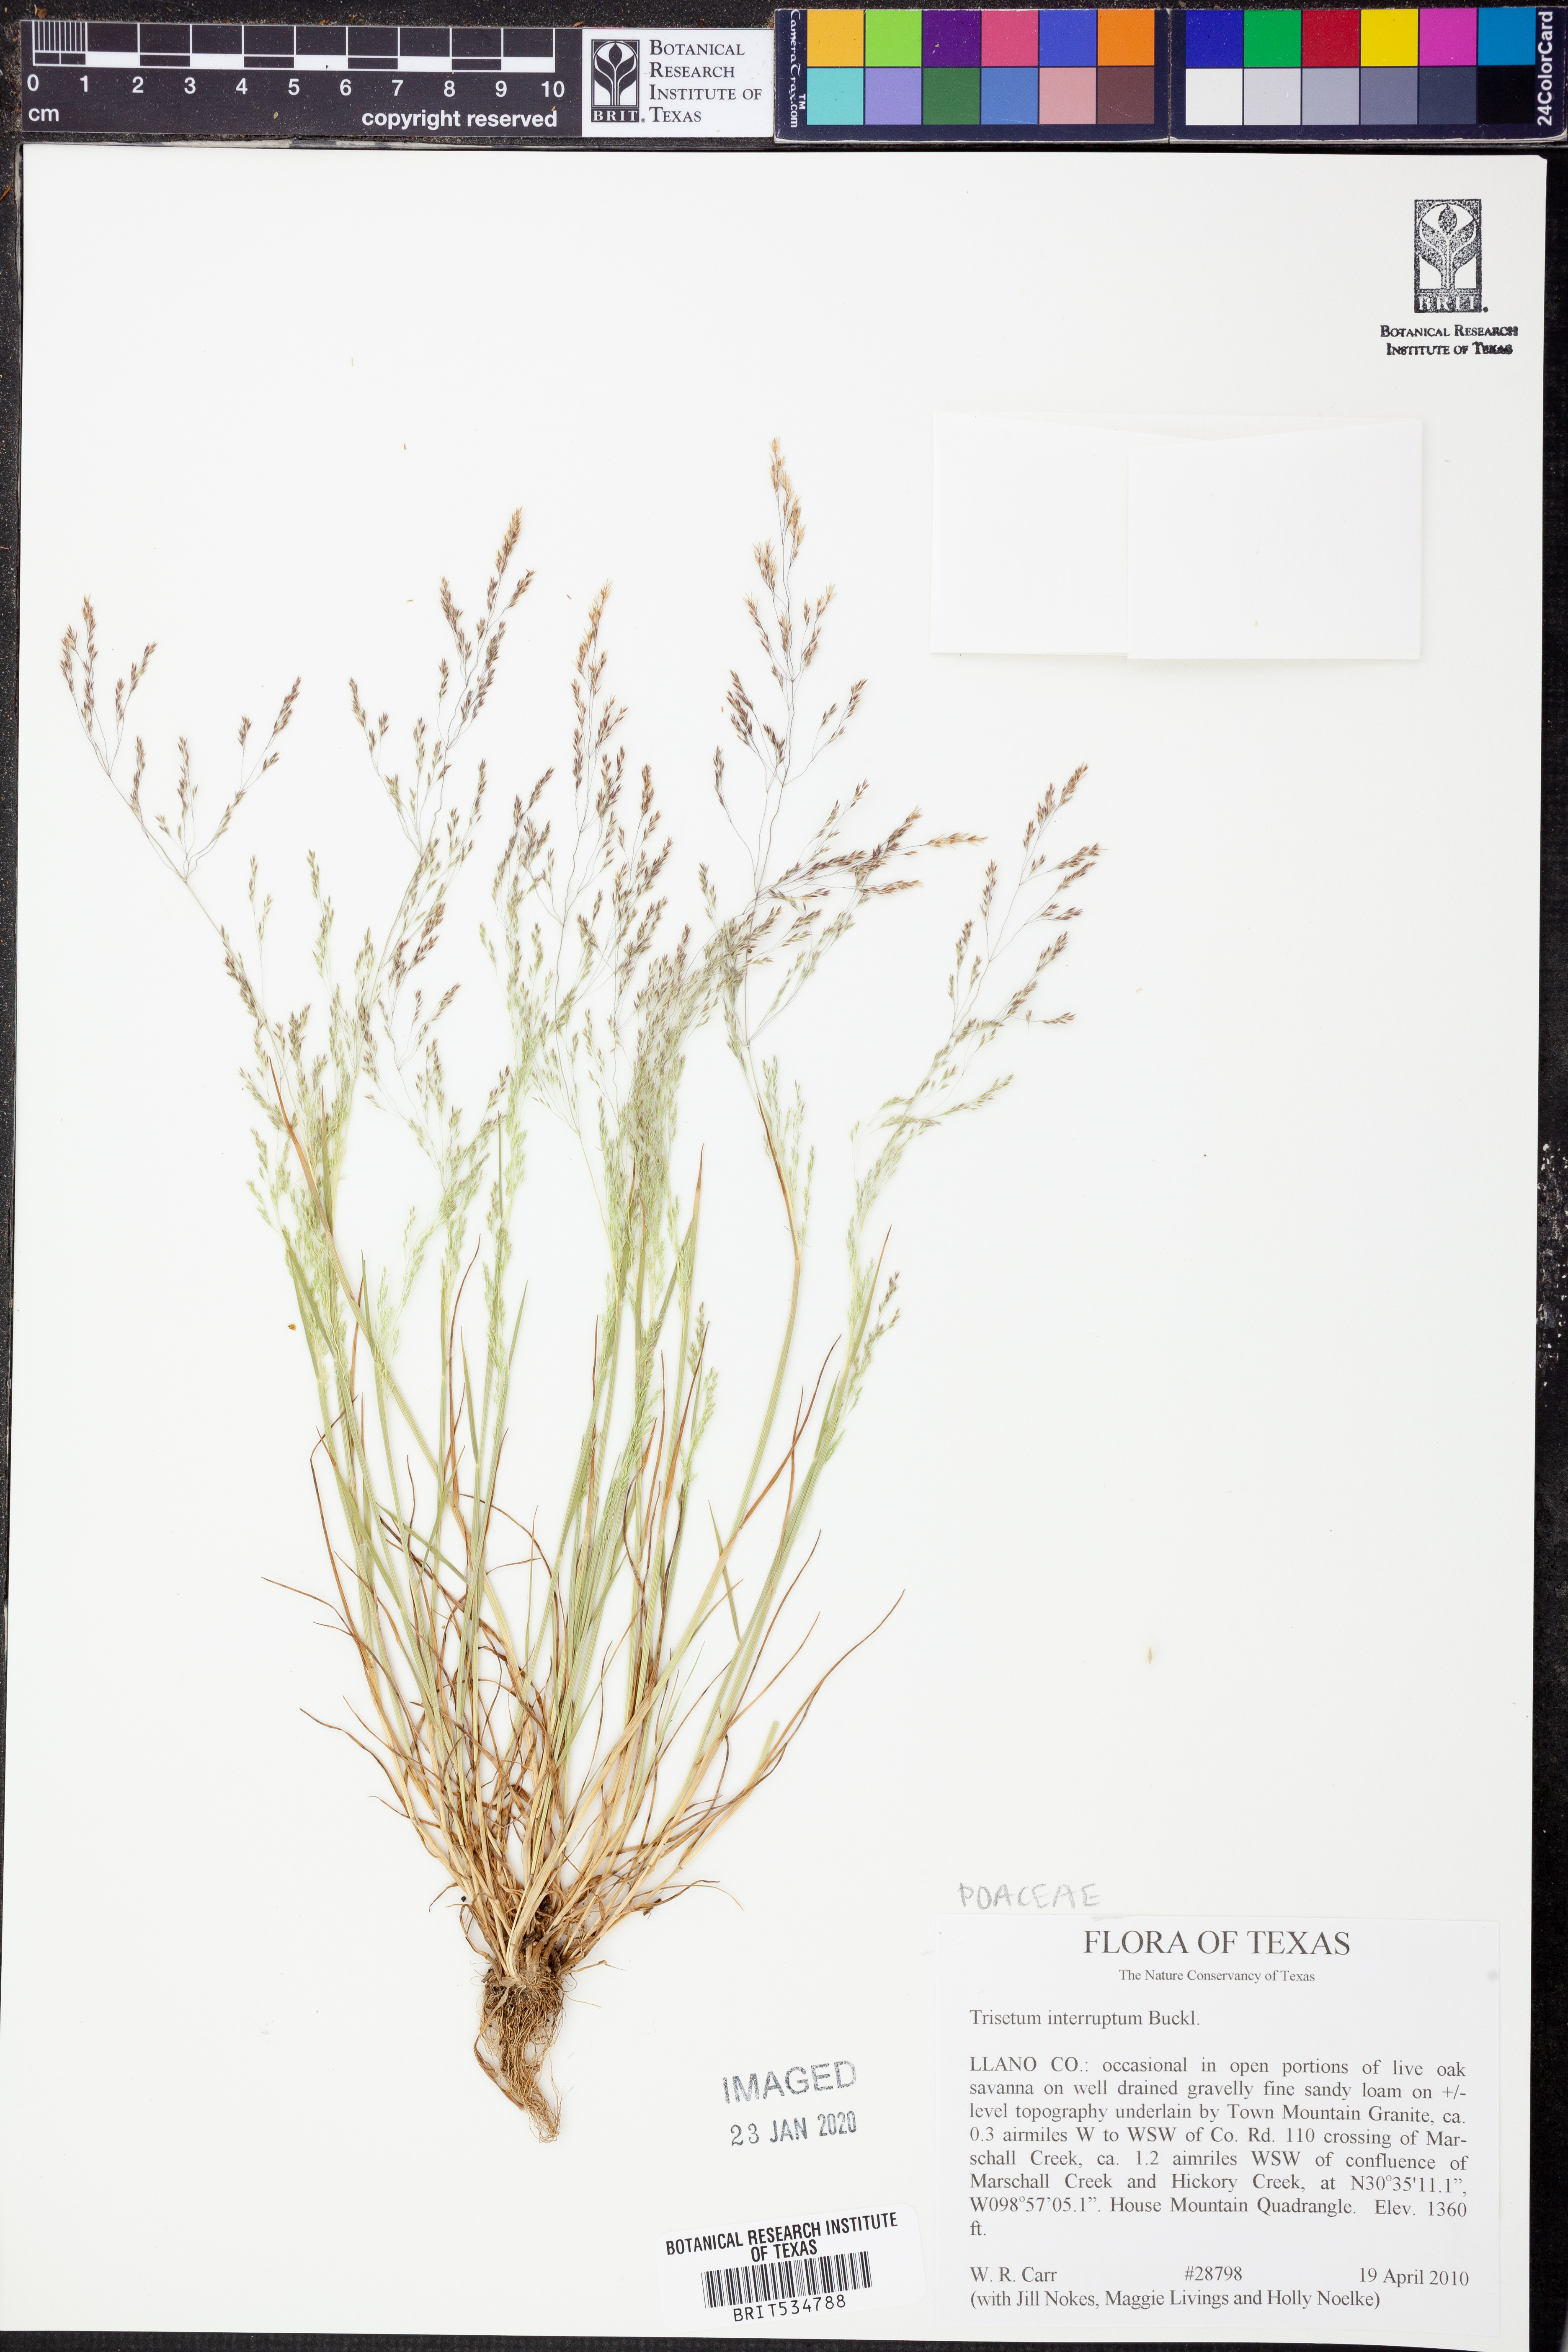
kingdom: Plantae
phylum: Tracheophyta
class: Liliopsida
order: Poales
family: Poaceae
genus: Sphenopholis
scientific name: Sphenopholis interrupta
